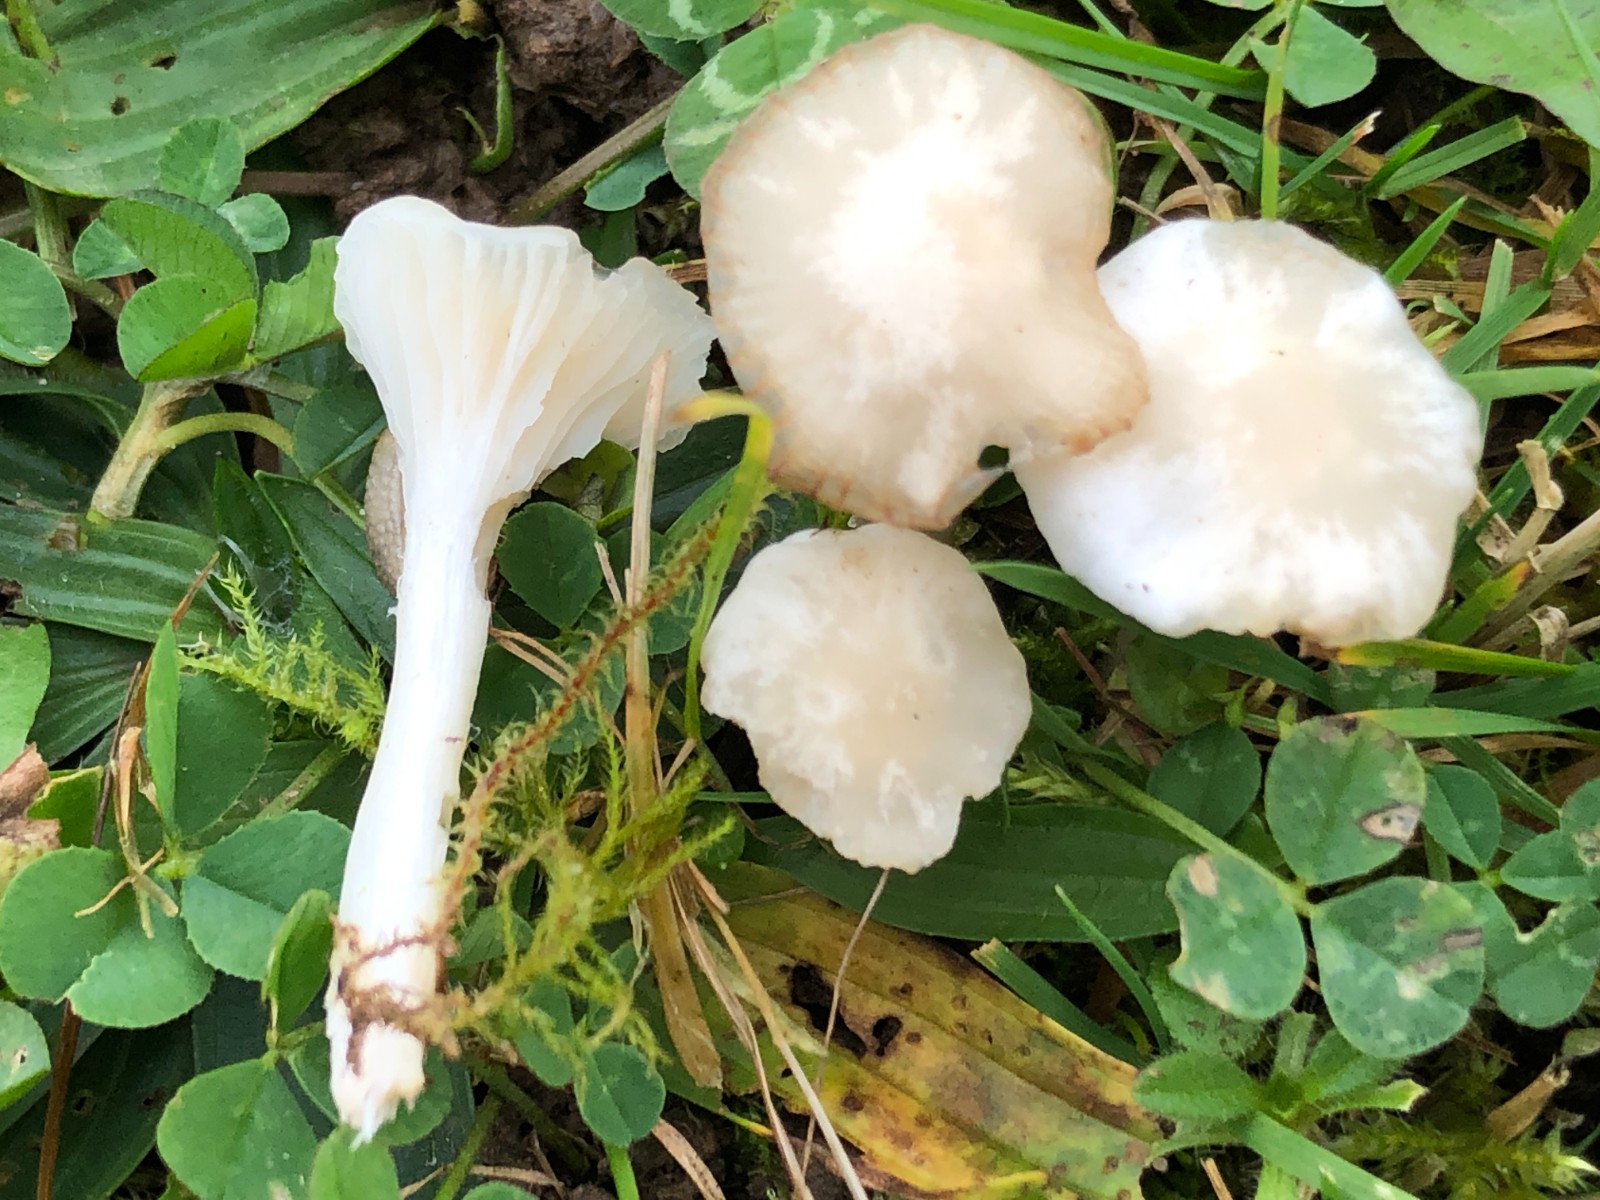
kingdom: Fungi
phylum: Basidiomycota
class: Agaricomycetes
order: Agaricales
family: Hygrophoraceae
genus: Cuphophyllus
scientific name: Cuphophyllus virgineus
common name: snehvid vokshat
